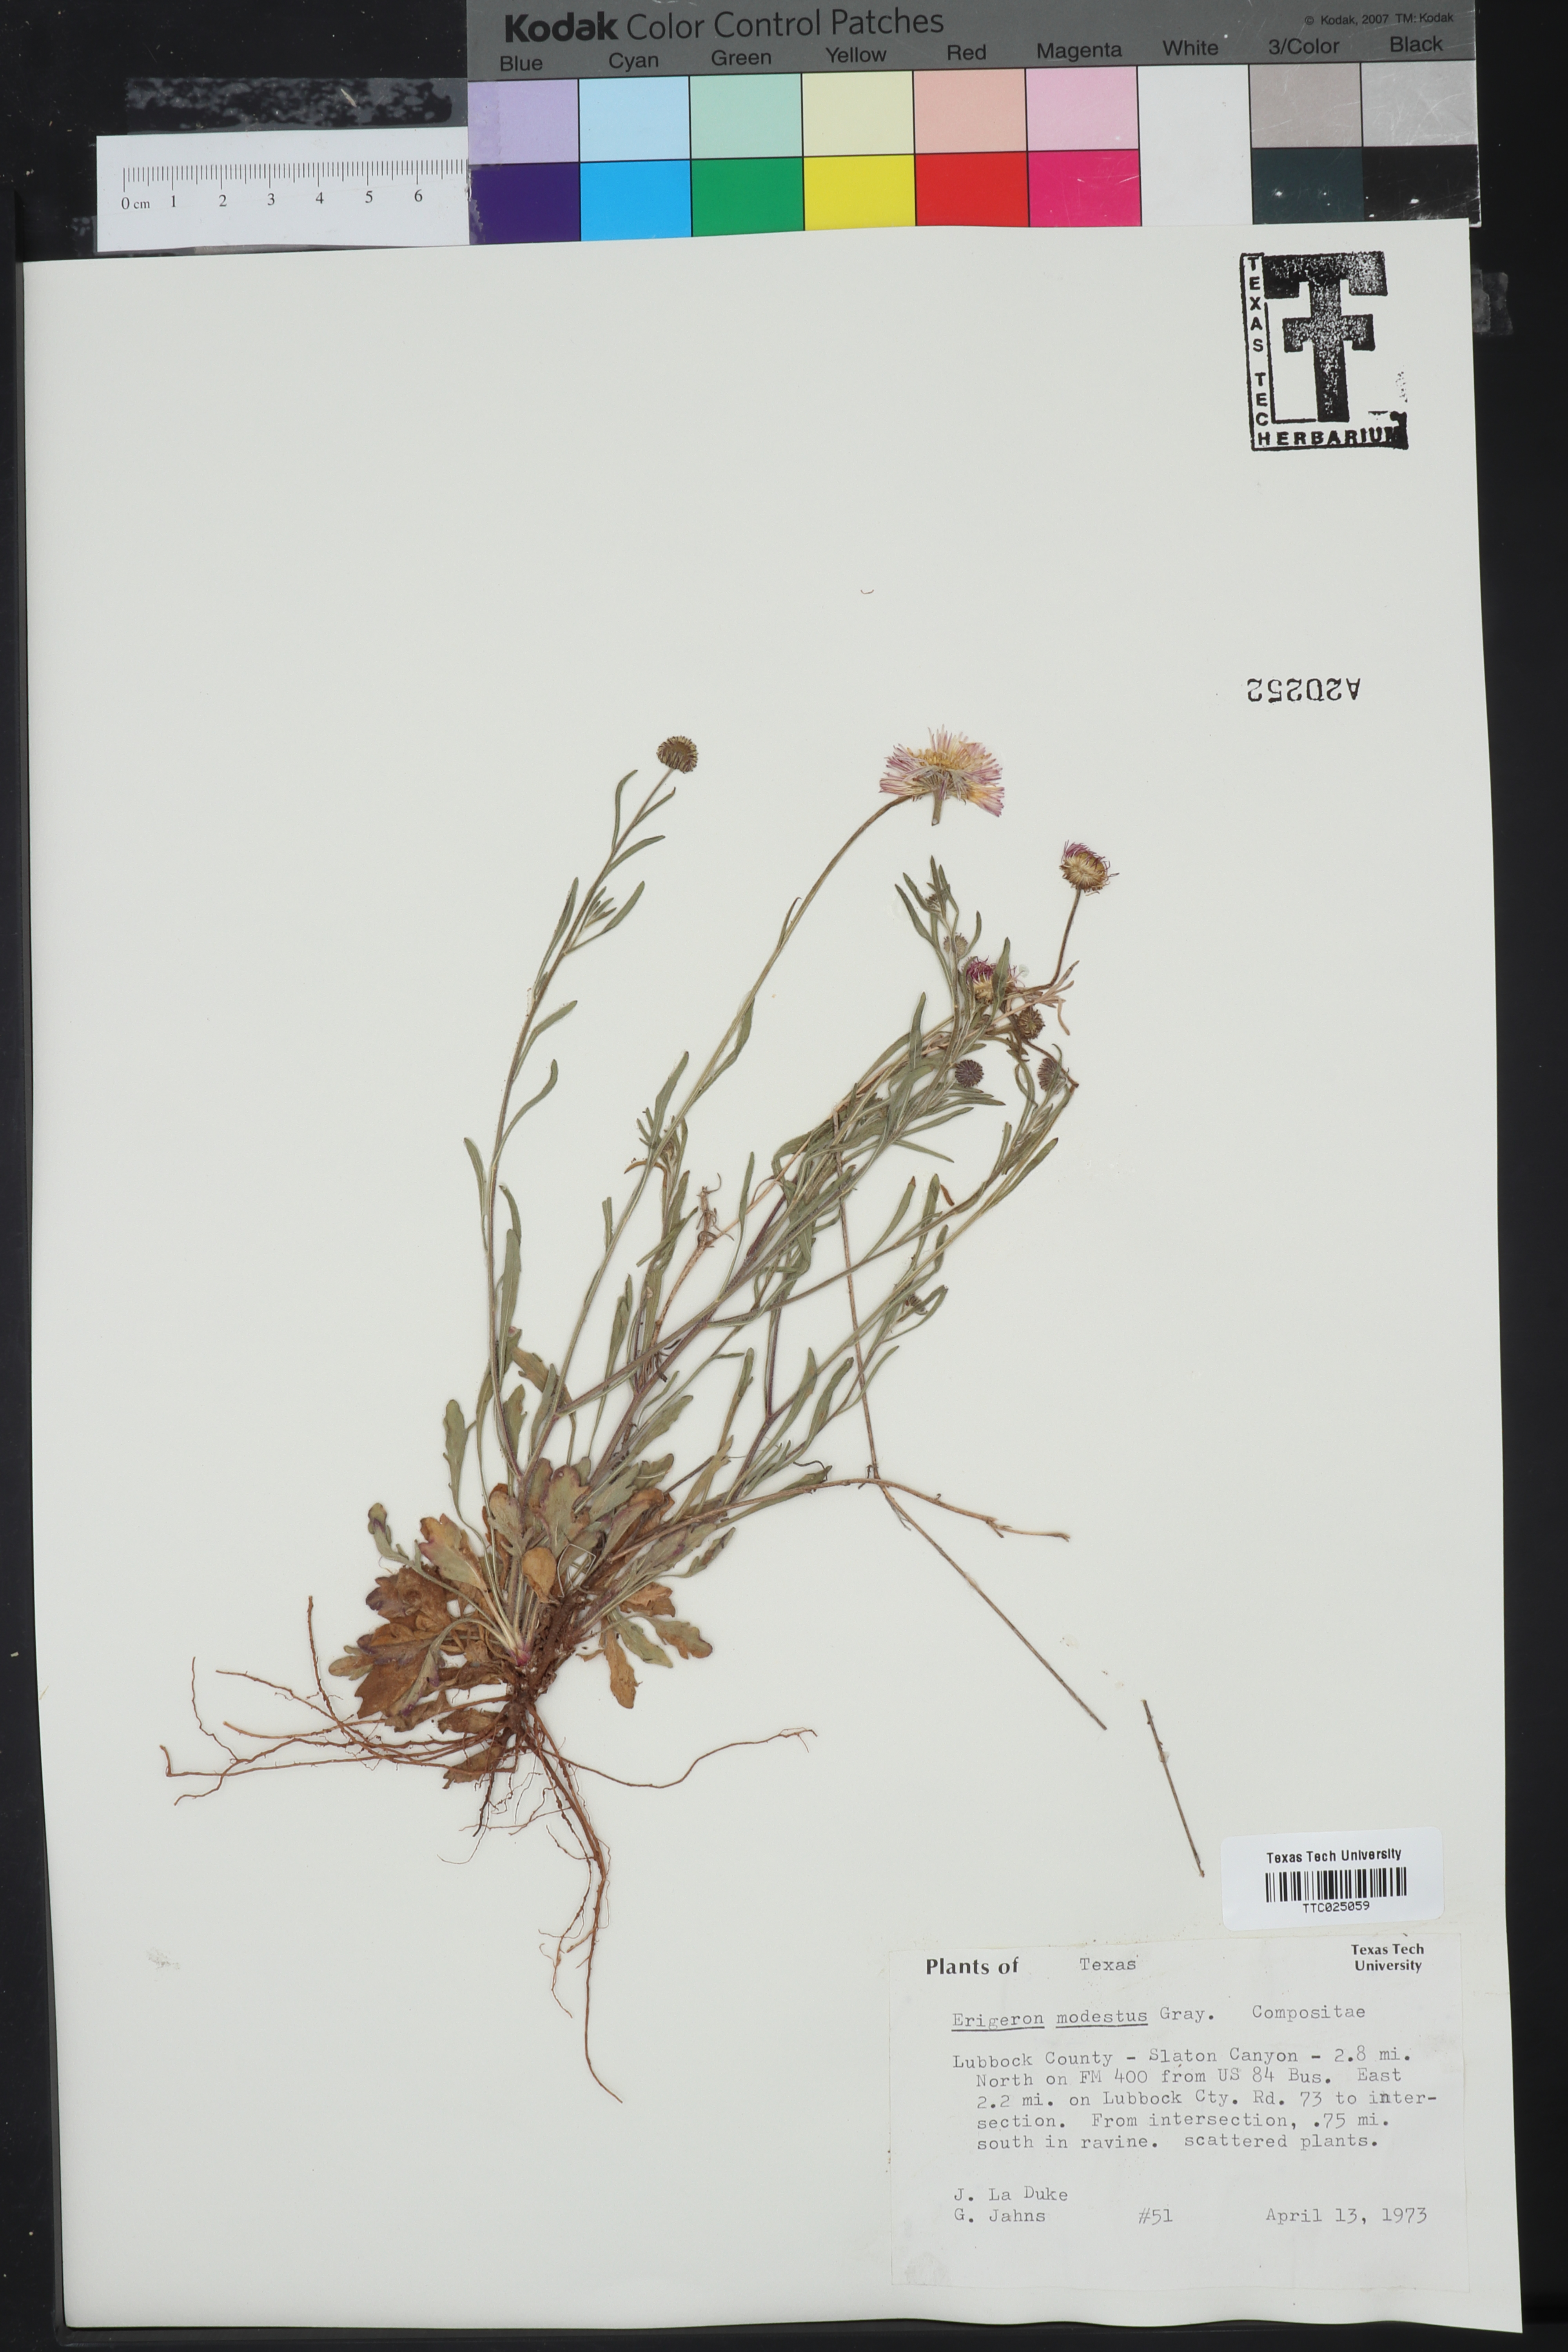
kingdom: Plantae
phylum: Tracheophyta
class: Magnoliopsida
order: Asterales
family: Asteraceae
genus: Erigeron
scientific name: Erigeron modestus
